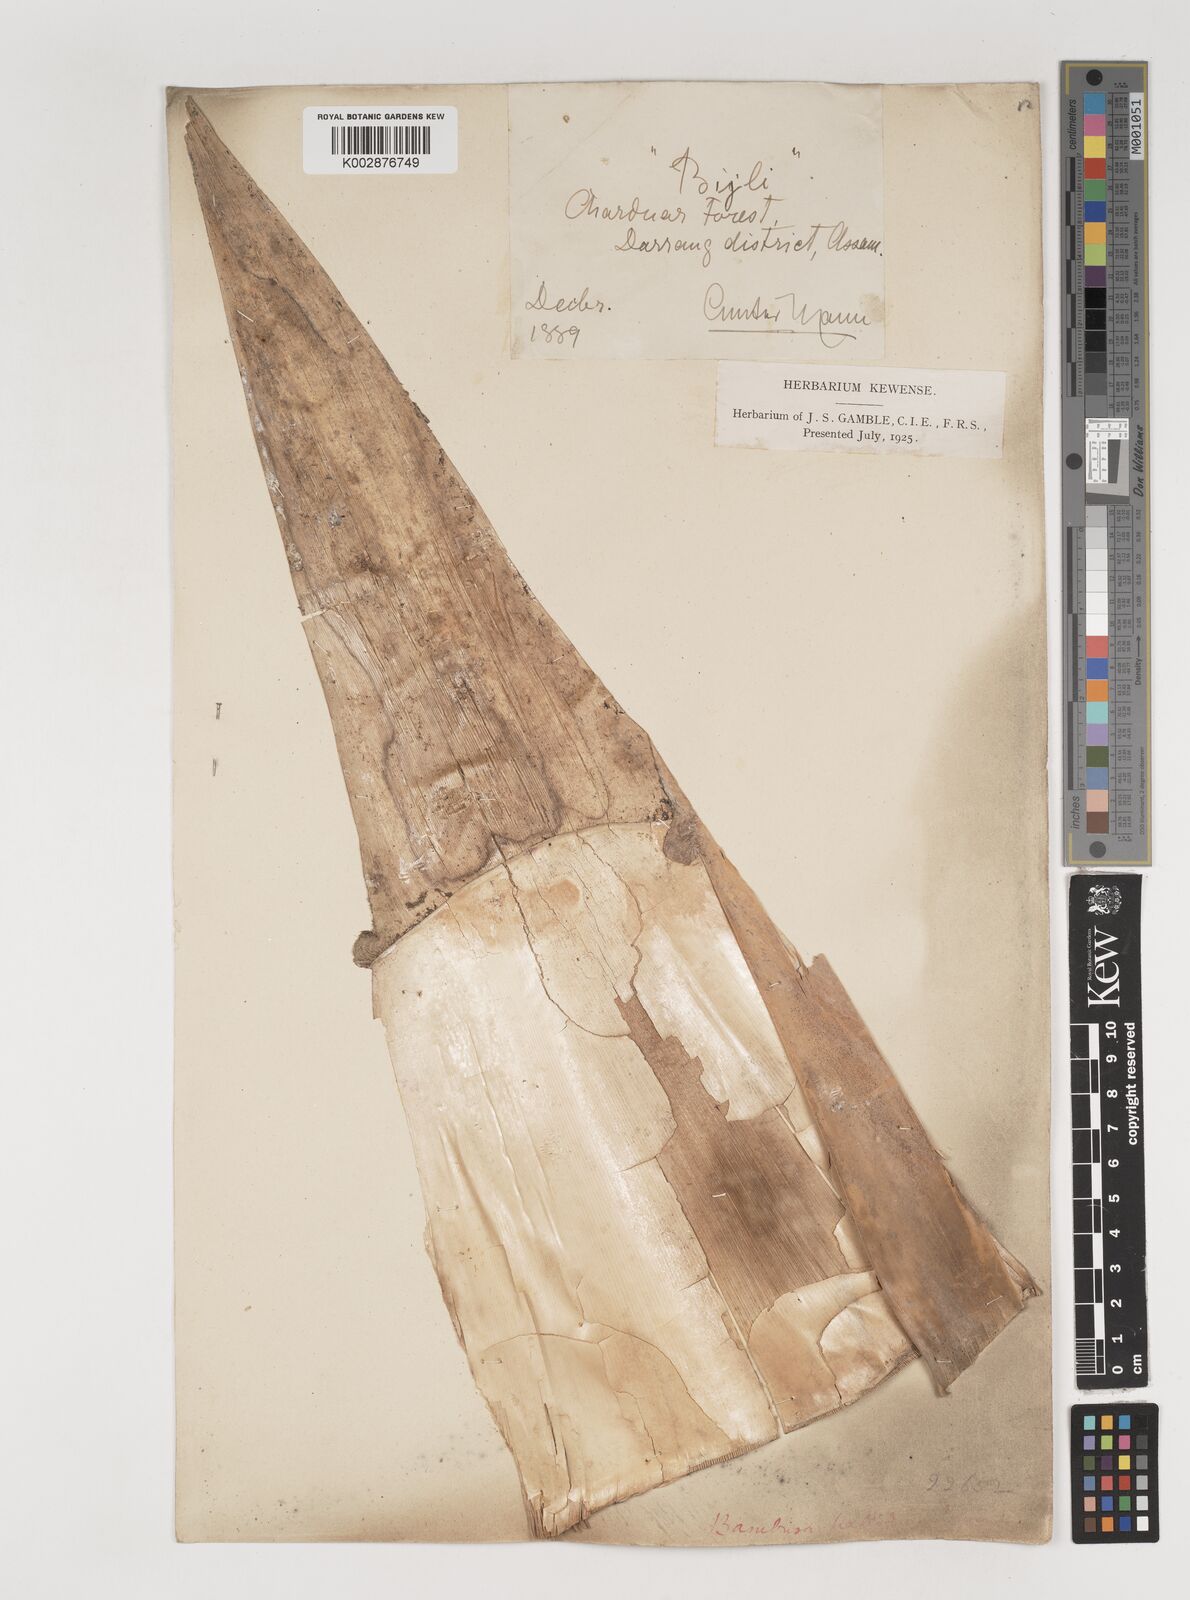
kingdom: Plantae
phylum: Tracheophyta
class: Liliopsida
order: Poales
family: Poaceae
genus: Bambusa
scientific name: Bambusa pallida
